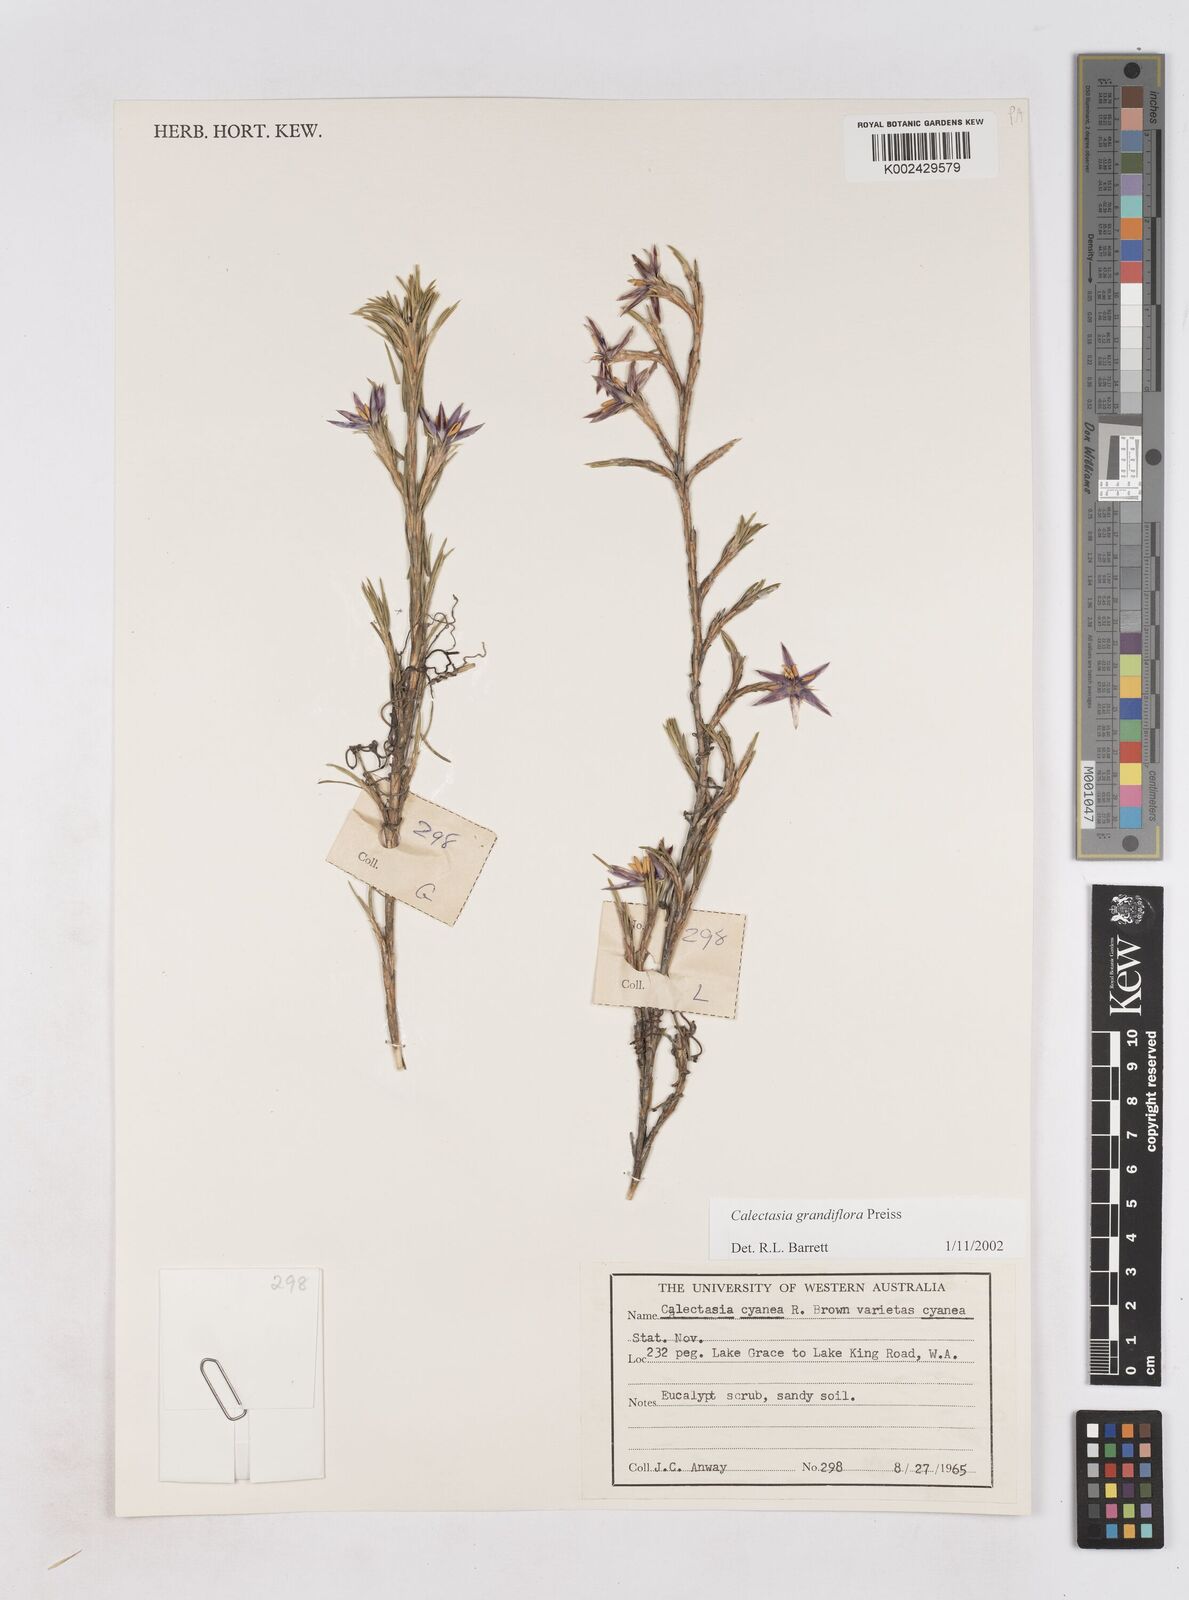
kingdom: Plantae
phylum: Tracheophyta
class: Liliopsida
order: Arecales
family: Dasypogonaceae
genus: Calectasia
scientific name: Calectasia grandiflora
